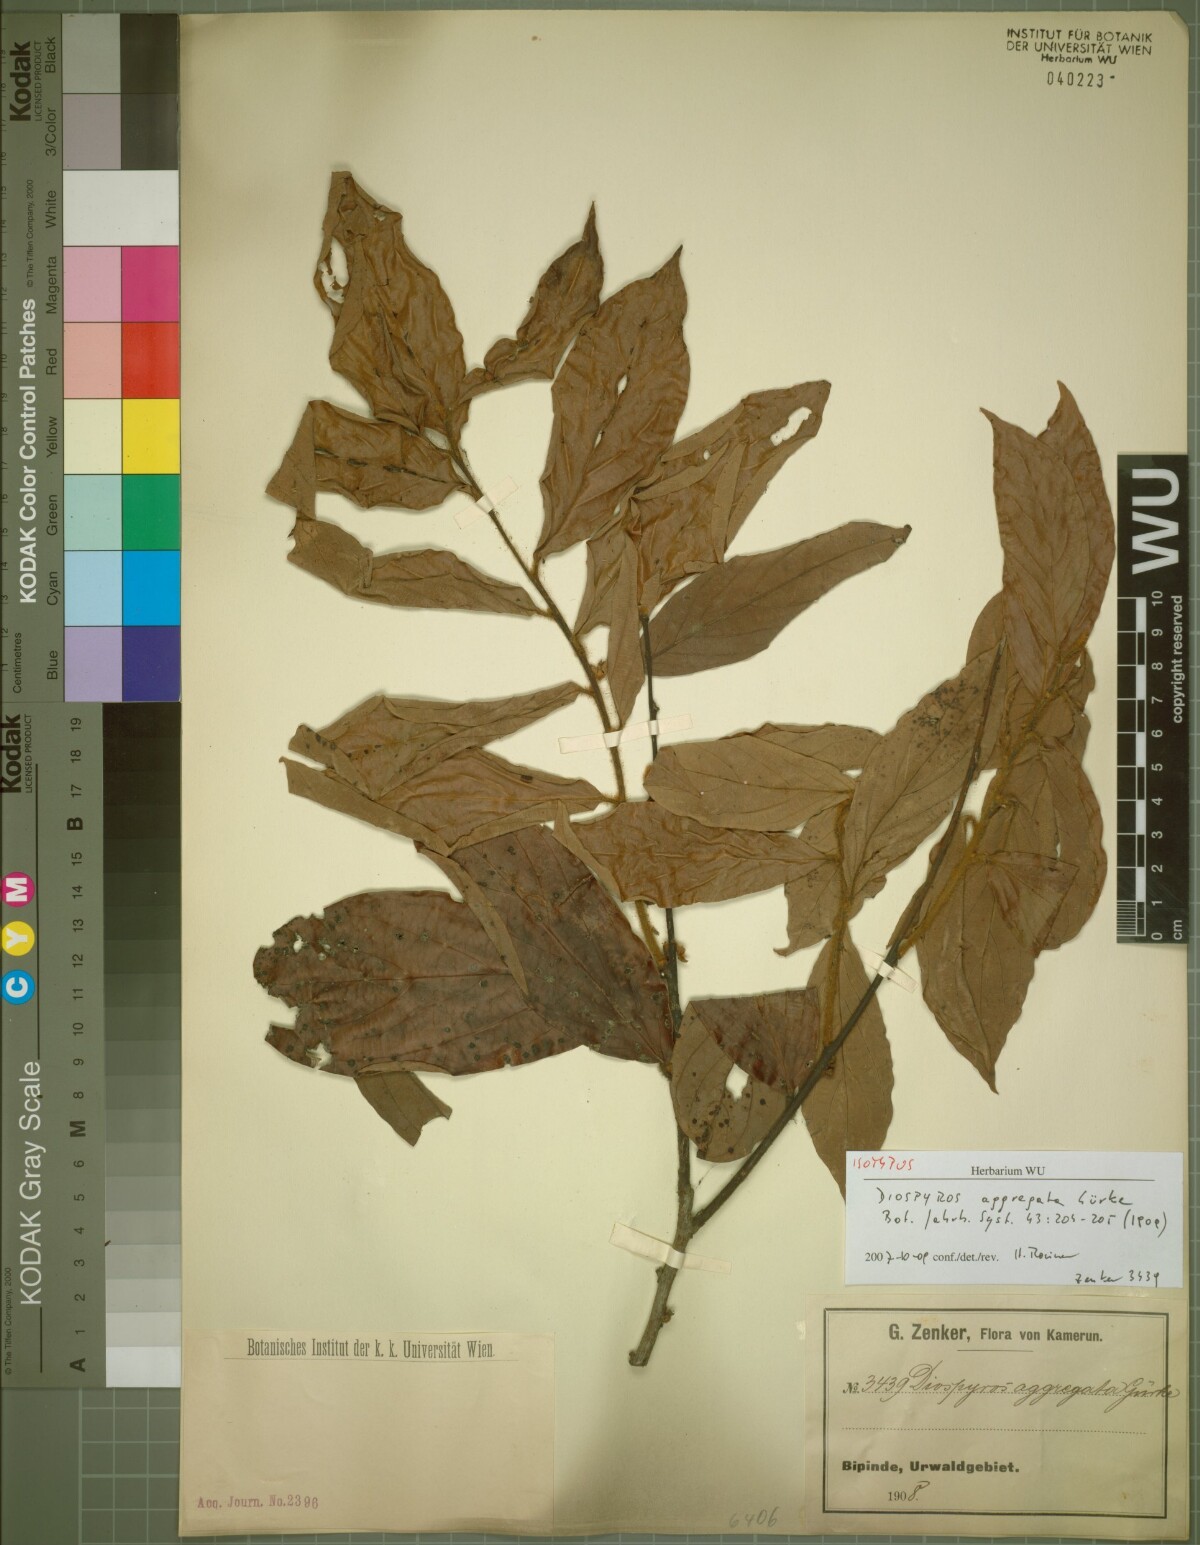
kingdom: Plantae
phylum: Tracheophyta
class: Magnoliopsida
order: Ericales
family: Ebenaceae
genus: Diospyros
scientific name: Diospyros mannii
